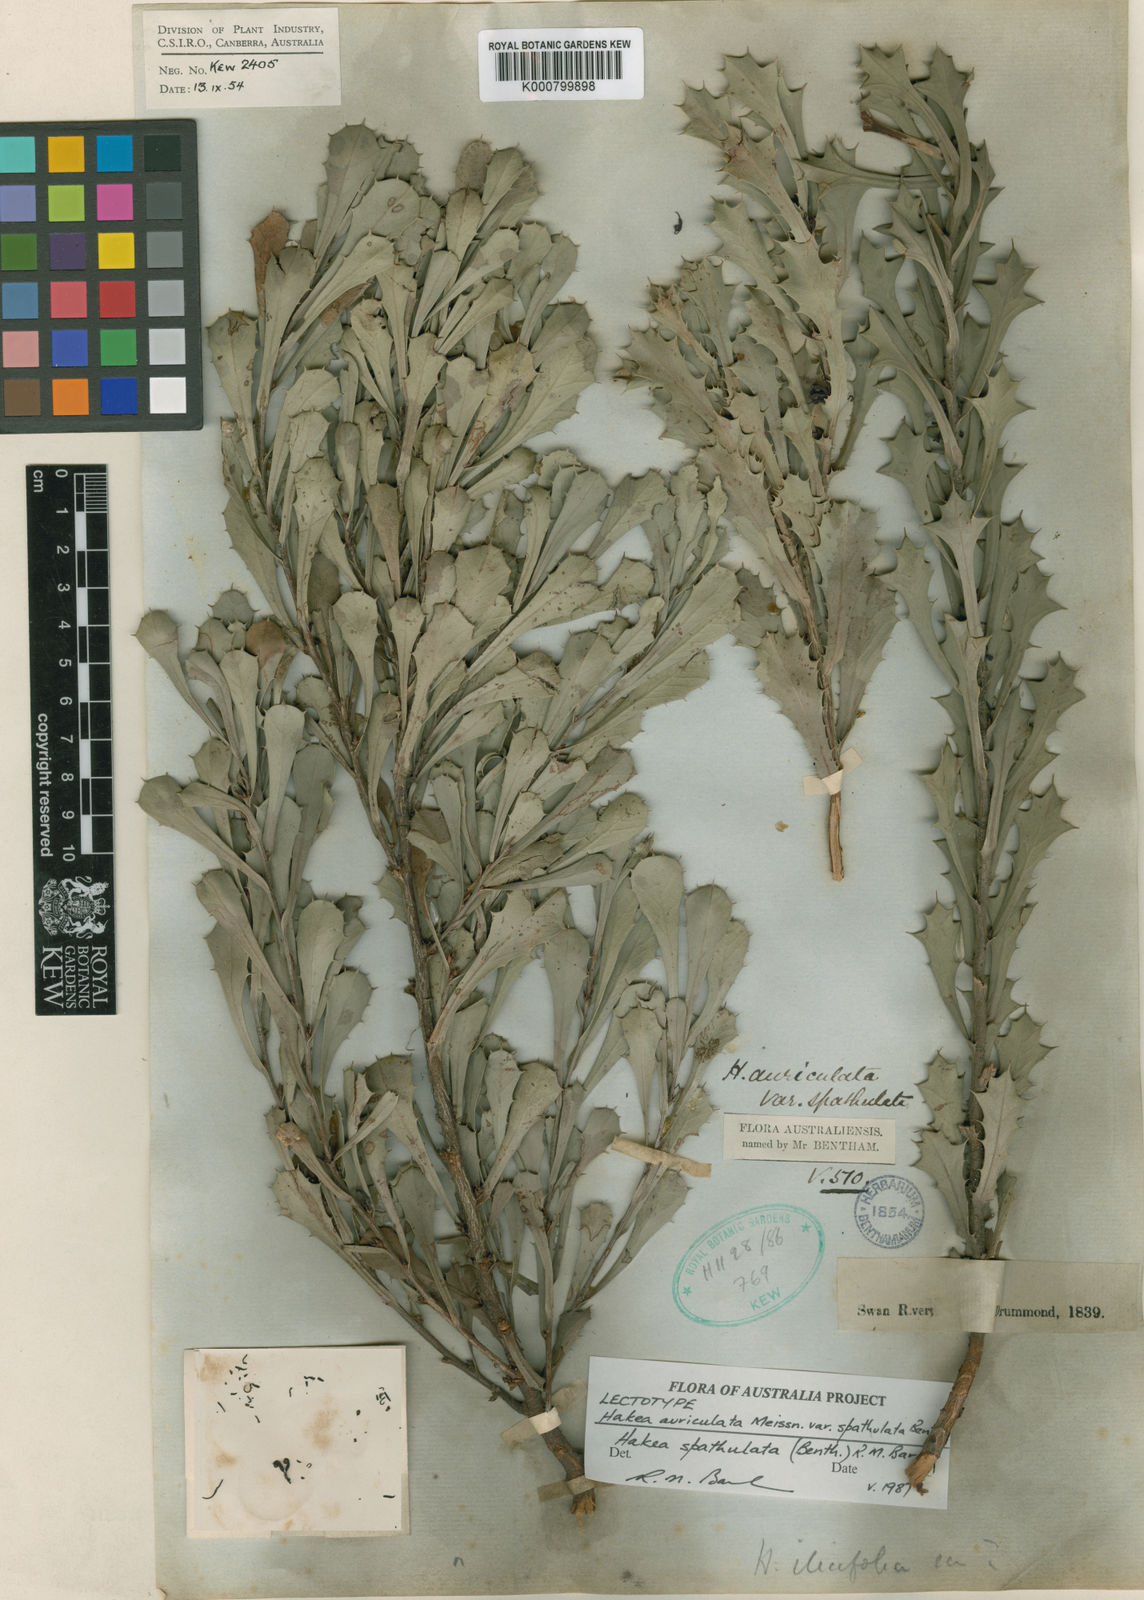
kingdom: Plantae
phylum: Tracheophyta
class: Magnoliopsida
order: Proteales
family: Proteaceae
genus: Hakea
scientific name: Hakea auriculata
